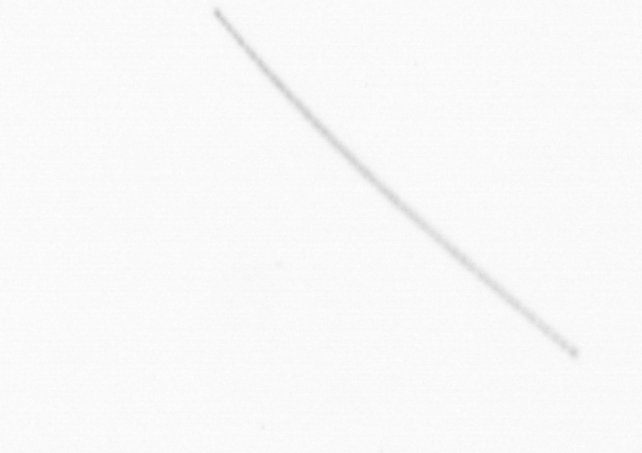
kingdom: Chromista
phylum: Ochrophyta
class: Bacillariophyceae
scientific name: Bacillariophyceae
